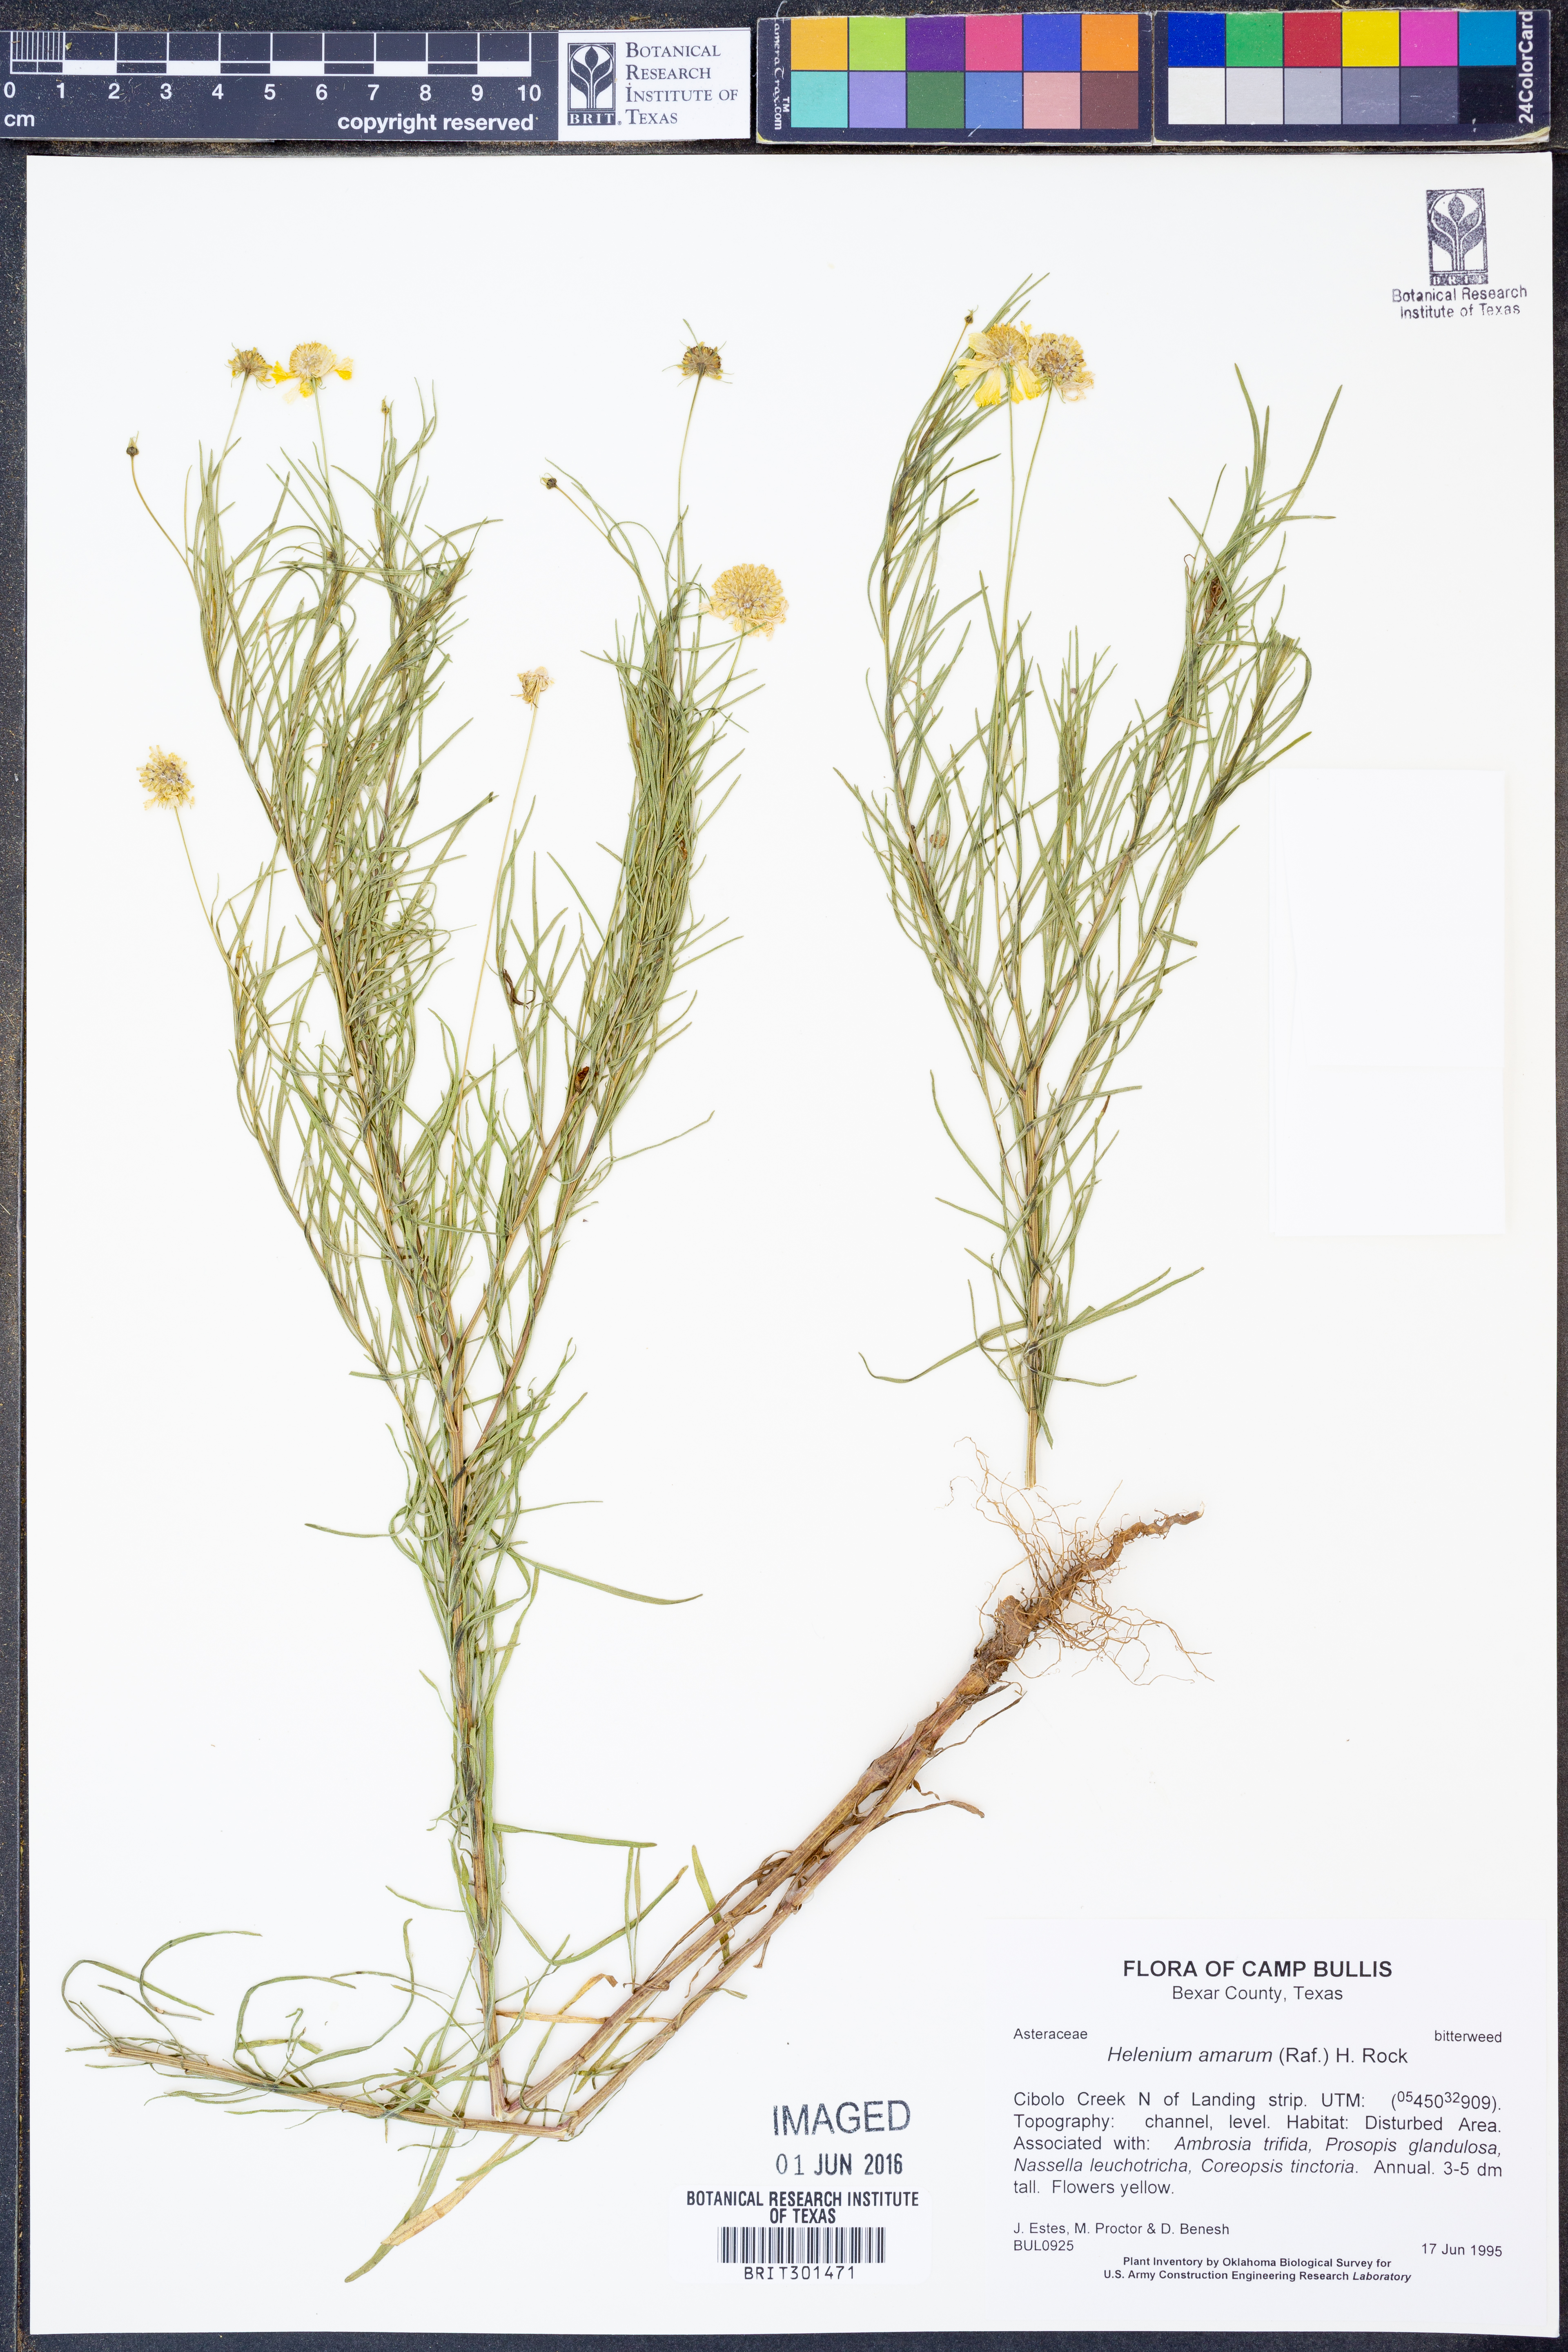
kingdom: Plantae
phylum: Tracheophyta
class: Magnoliopsida
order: Asterales
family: Asteraceae
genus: Helenium
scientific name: Helenium amarum
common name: Bitter sneezeweed
